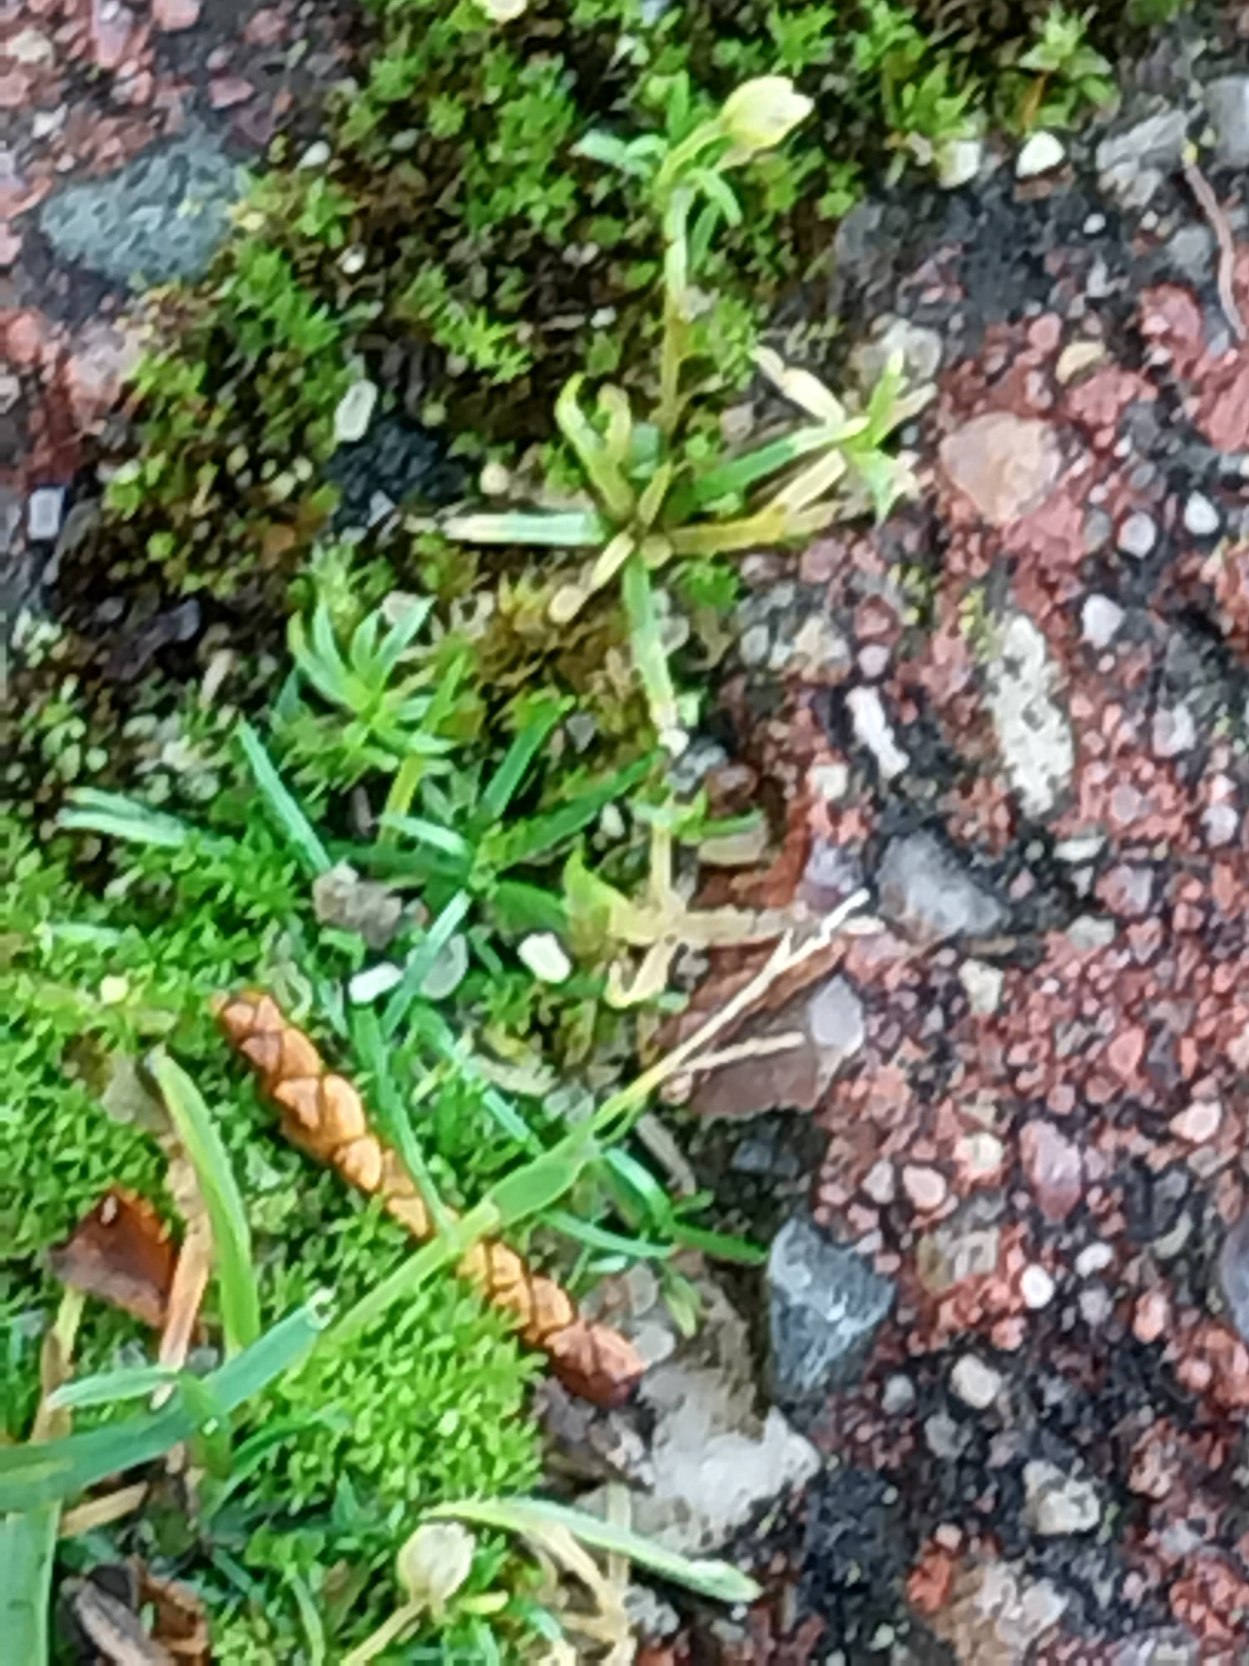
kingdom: Plantae
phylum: Tracheophyta
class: Magnoliopsida
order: Caryophyllales
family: Caryophyllaceae
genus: Sagina
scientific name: Sagina procumbens
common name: Almindelig firling
